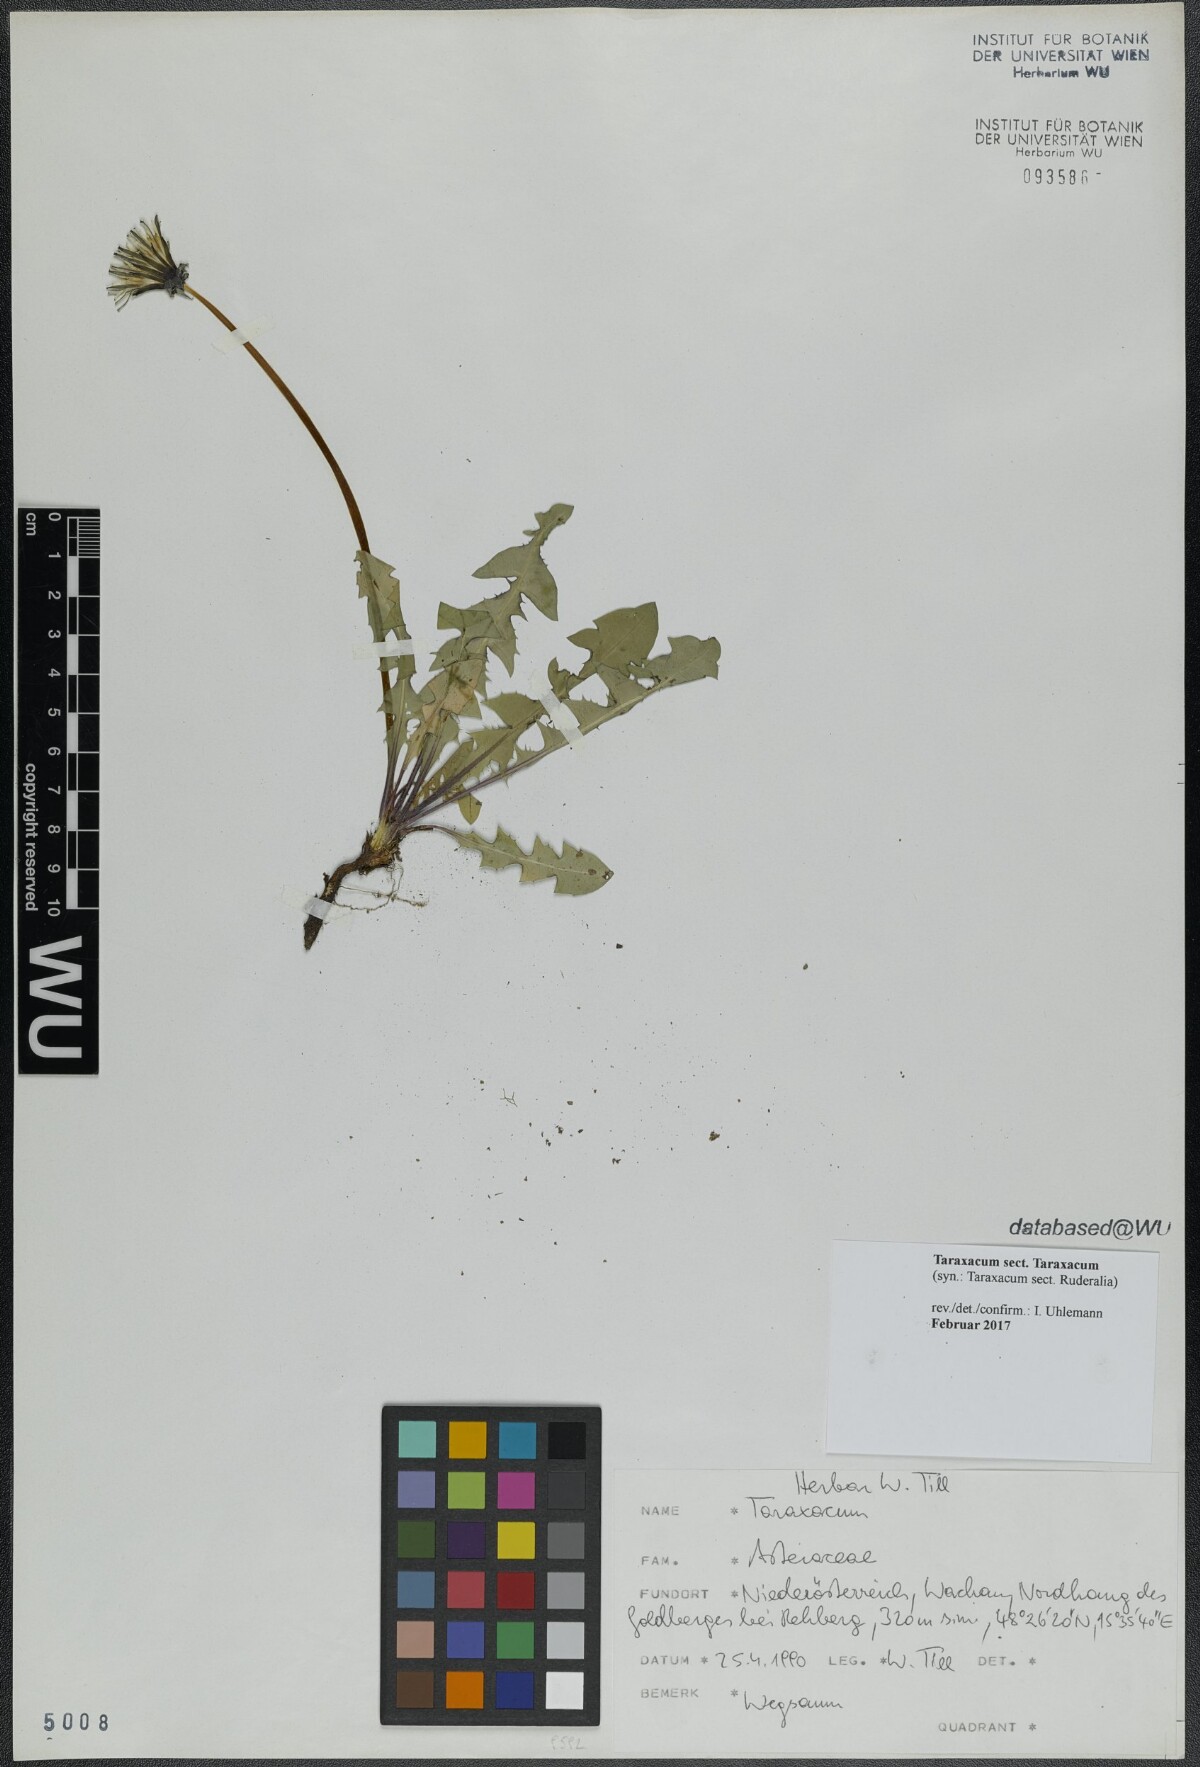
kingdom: Plantae
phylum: Tracheophyta
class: Magnoliopsida
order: Asterales
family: Asteraceae
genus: Taraxacum
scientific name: Taraxacum
